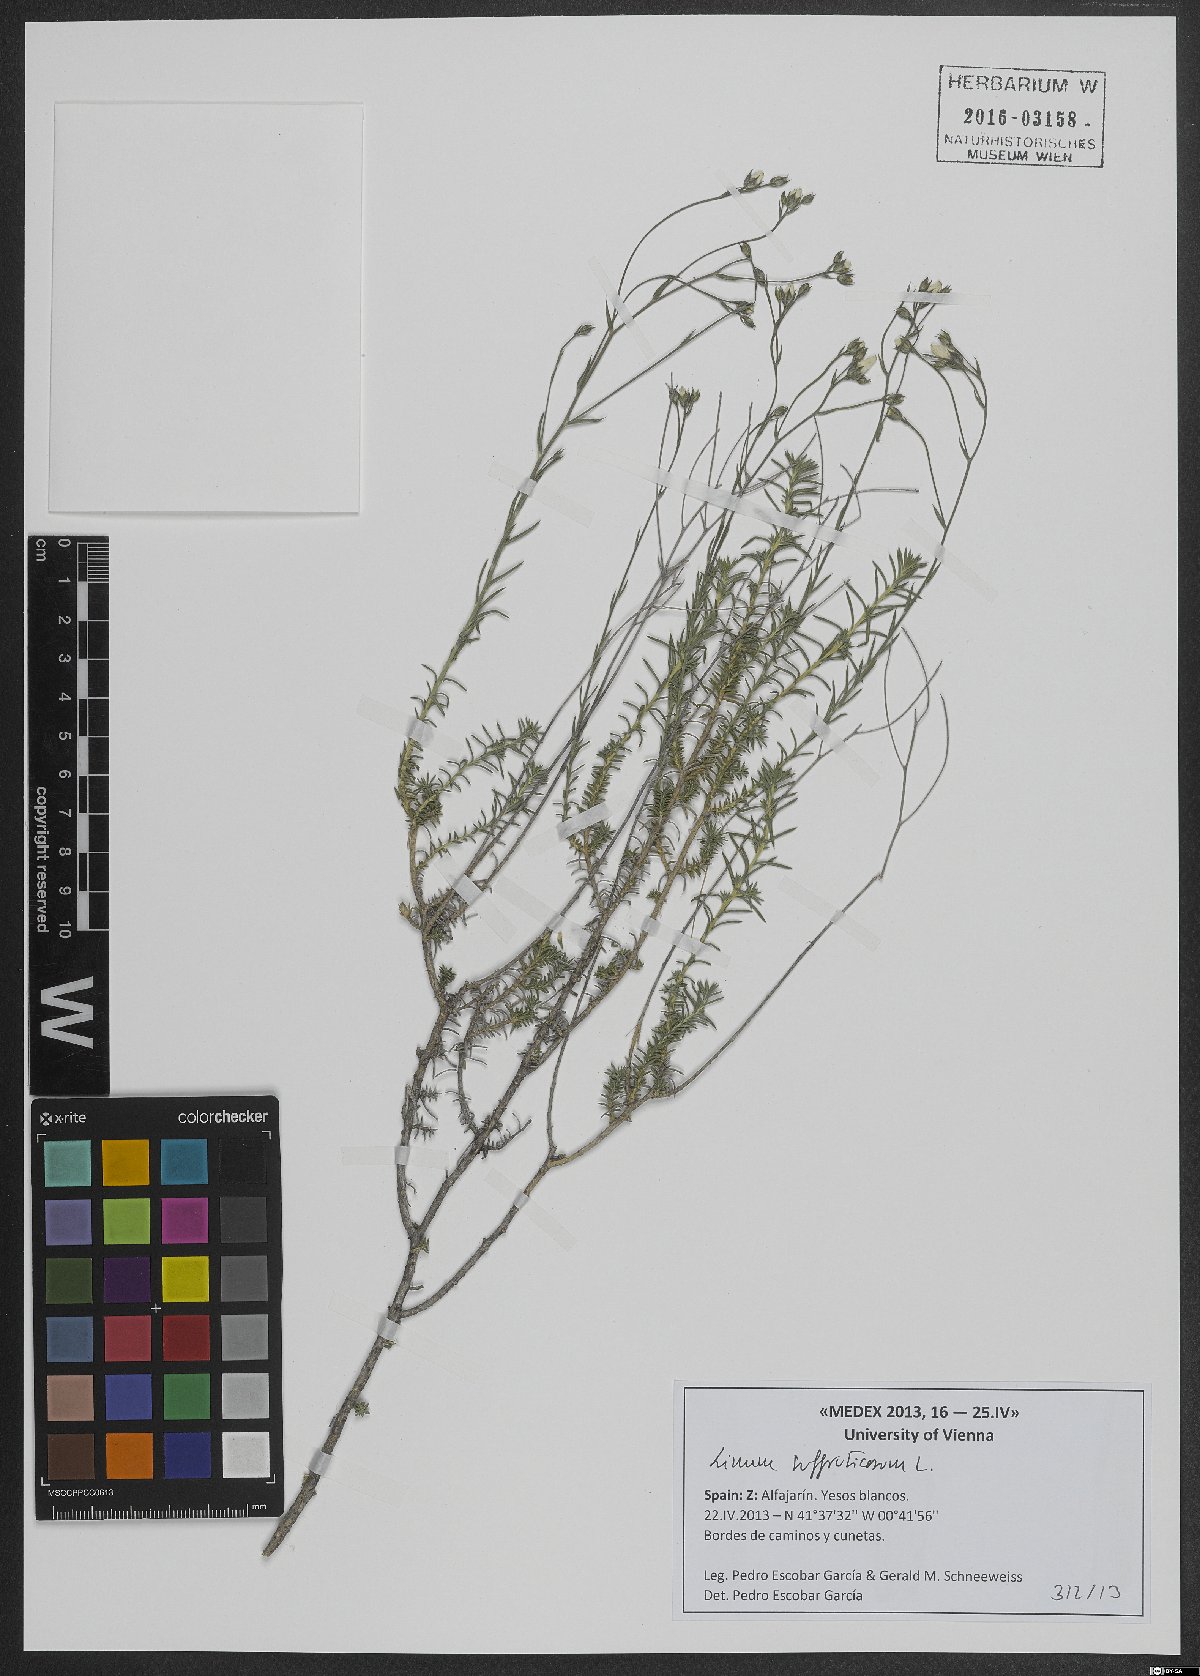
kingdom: Plantae
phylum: Tracheophyta
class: Magnoliopsida
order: Malpighiales
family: Linaceae
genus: Linum
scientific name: Linum suffruticosum
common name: White flax
